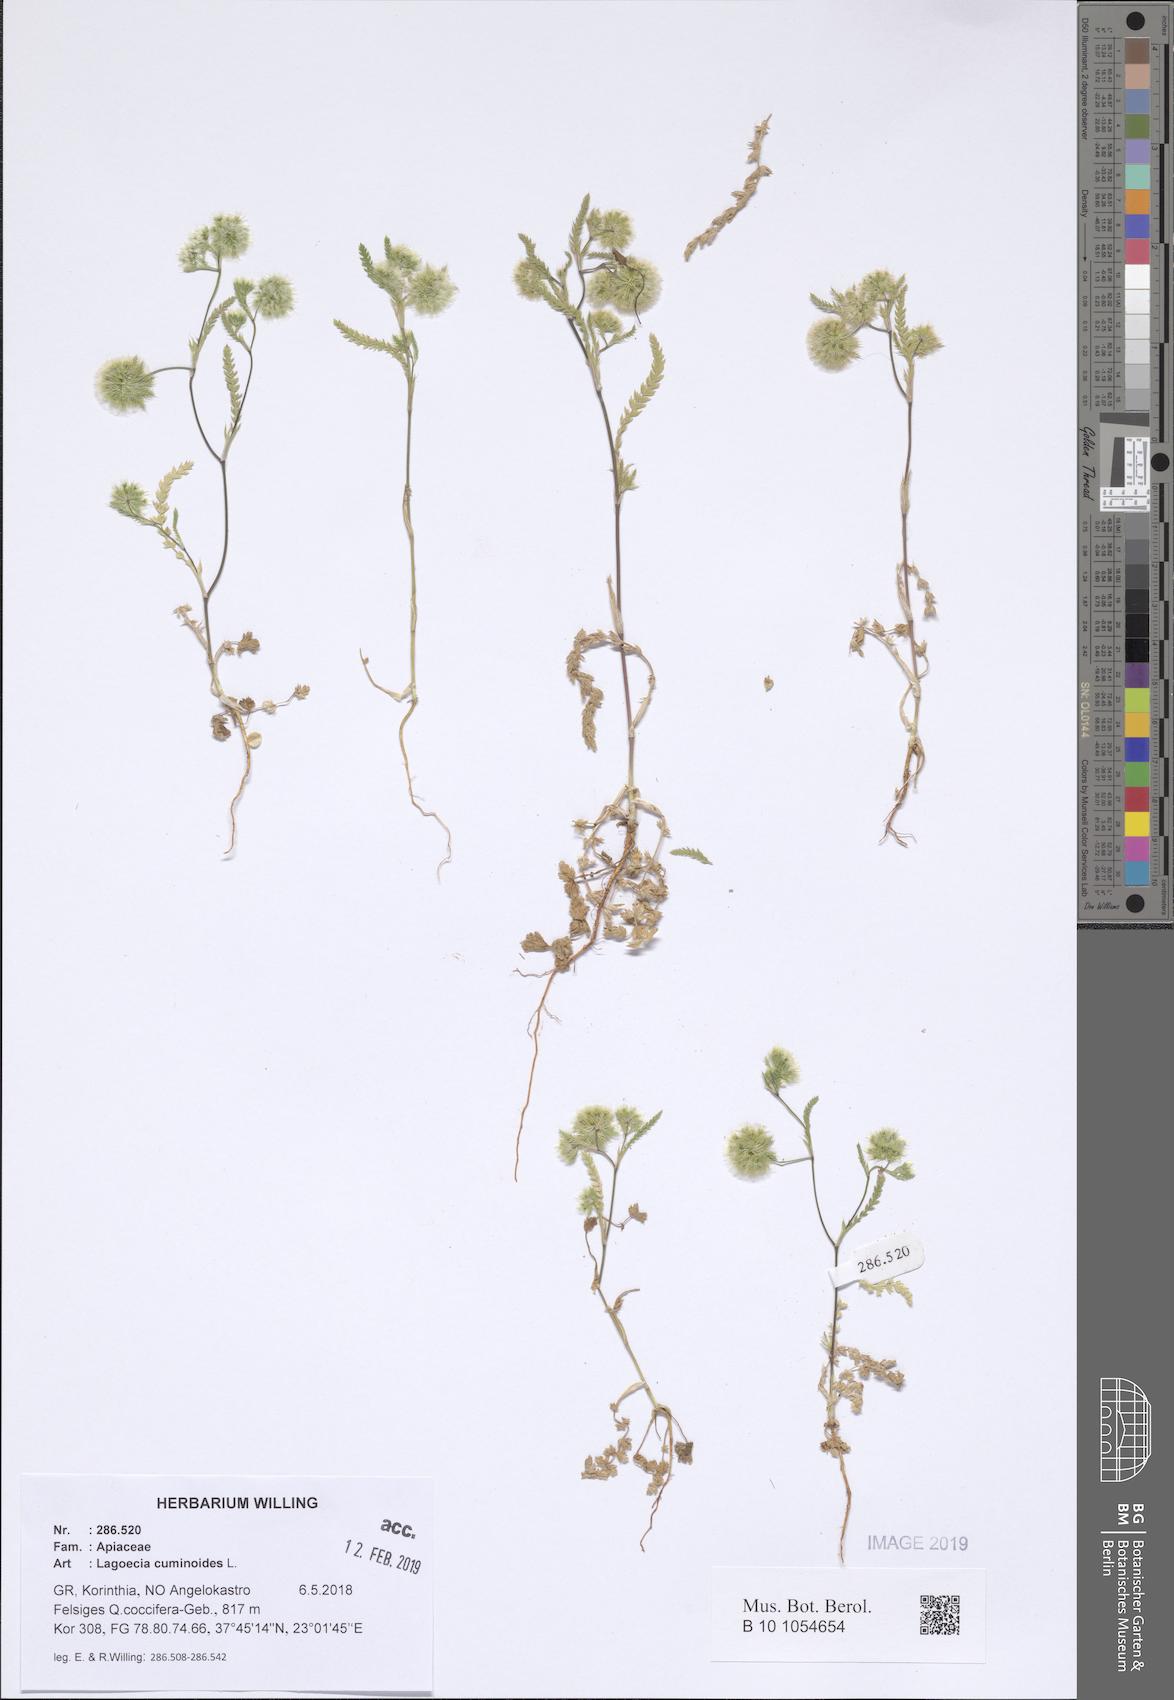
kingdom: Plantae
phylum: Tracheophyta
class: Magnoliopsida
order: Apiales
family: Apiaceae
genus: Lagoecia
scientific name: Lagoecia cuminoides
